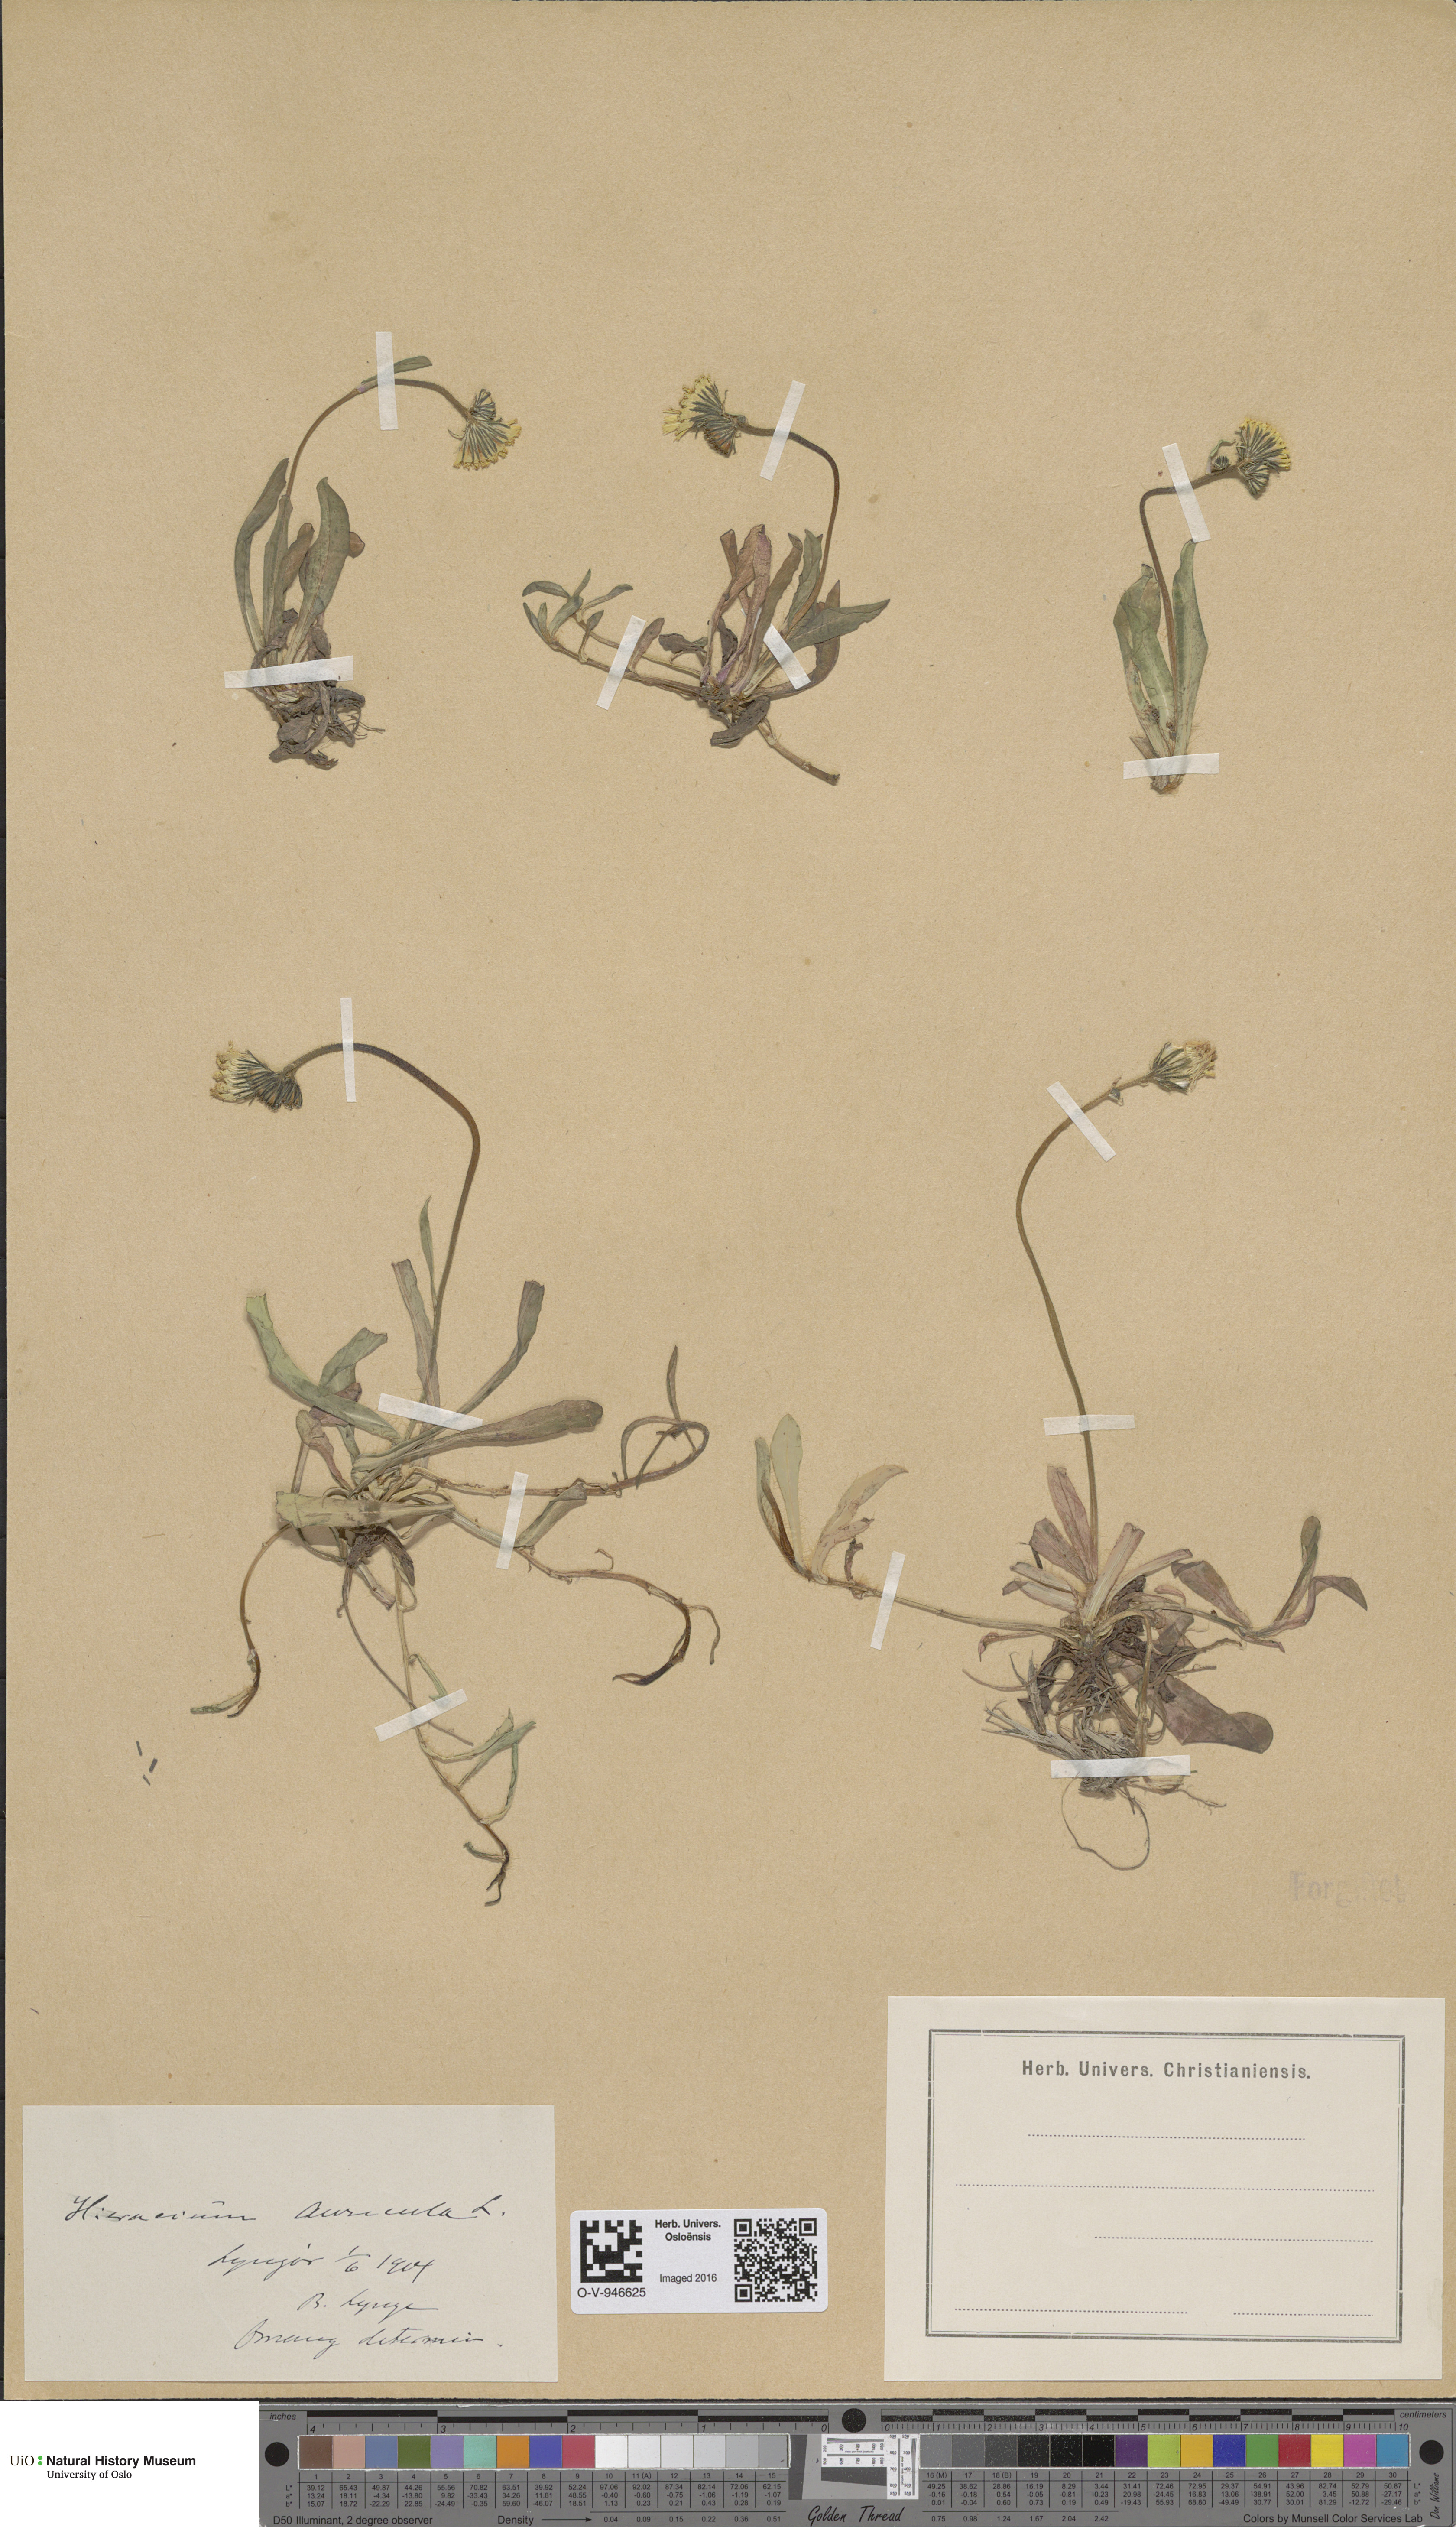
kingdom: Plantae
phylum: Tracheophyta
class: Magnoliopsida
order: Asterales
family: Asteraceae
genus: Pilosella
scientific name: Pilosella lactucella
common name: Glaucous fox-and-cubs
